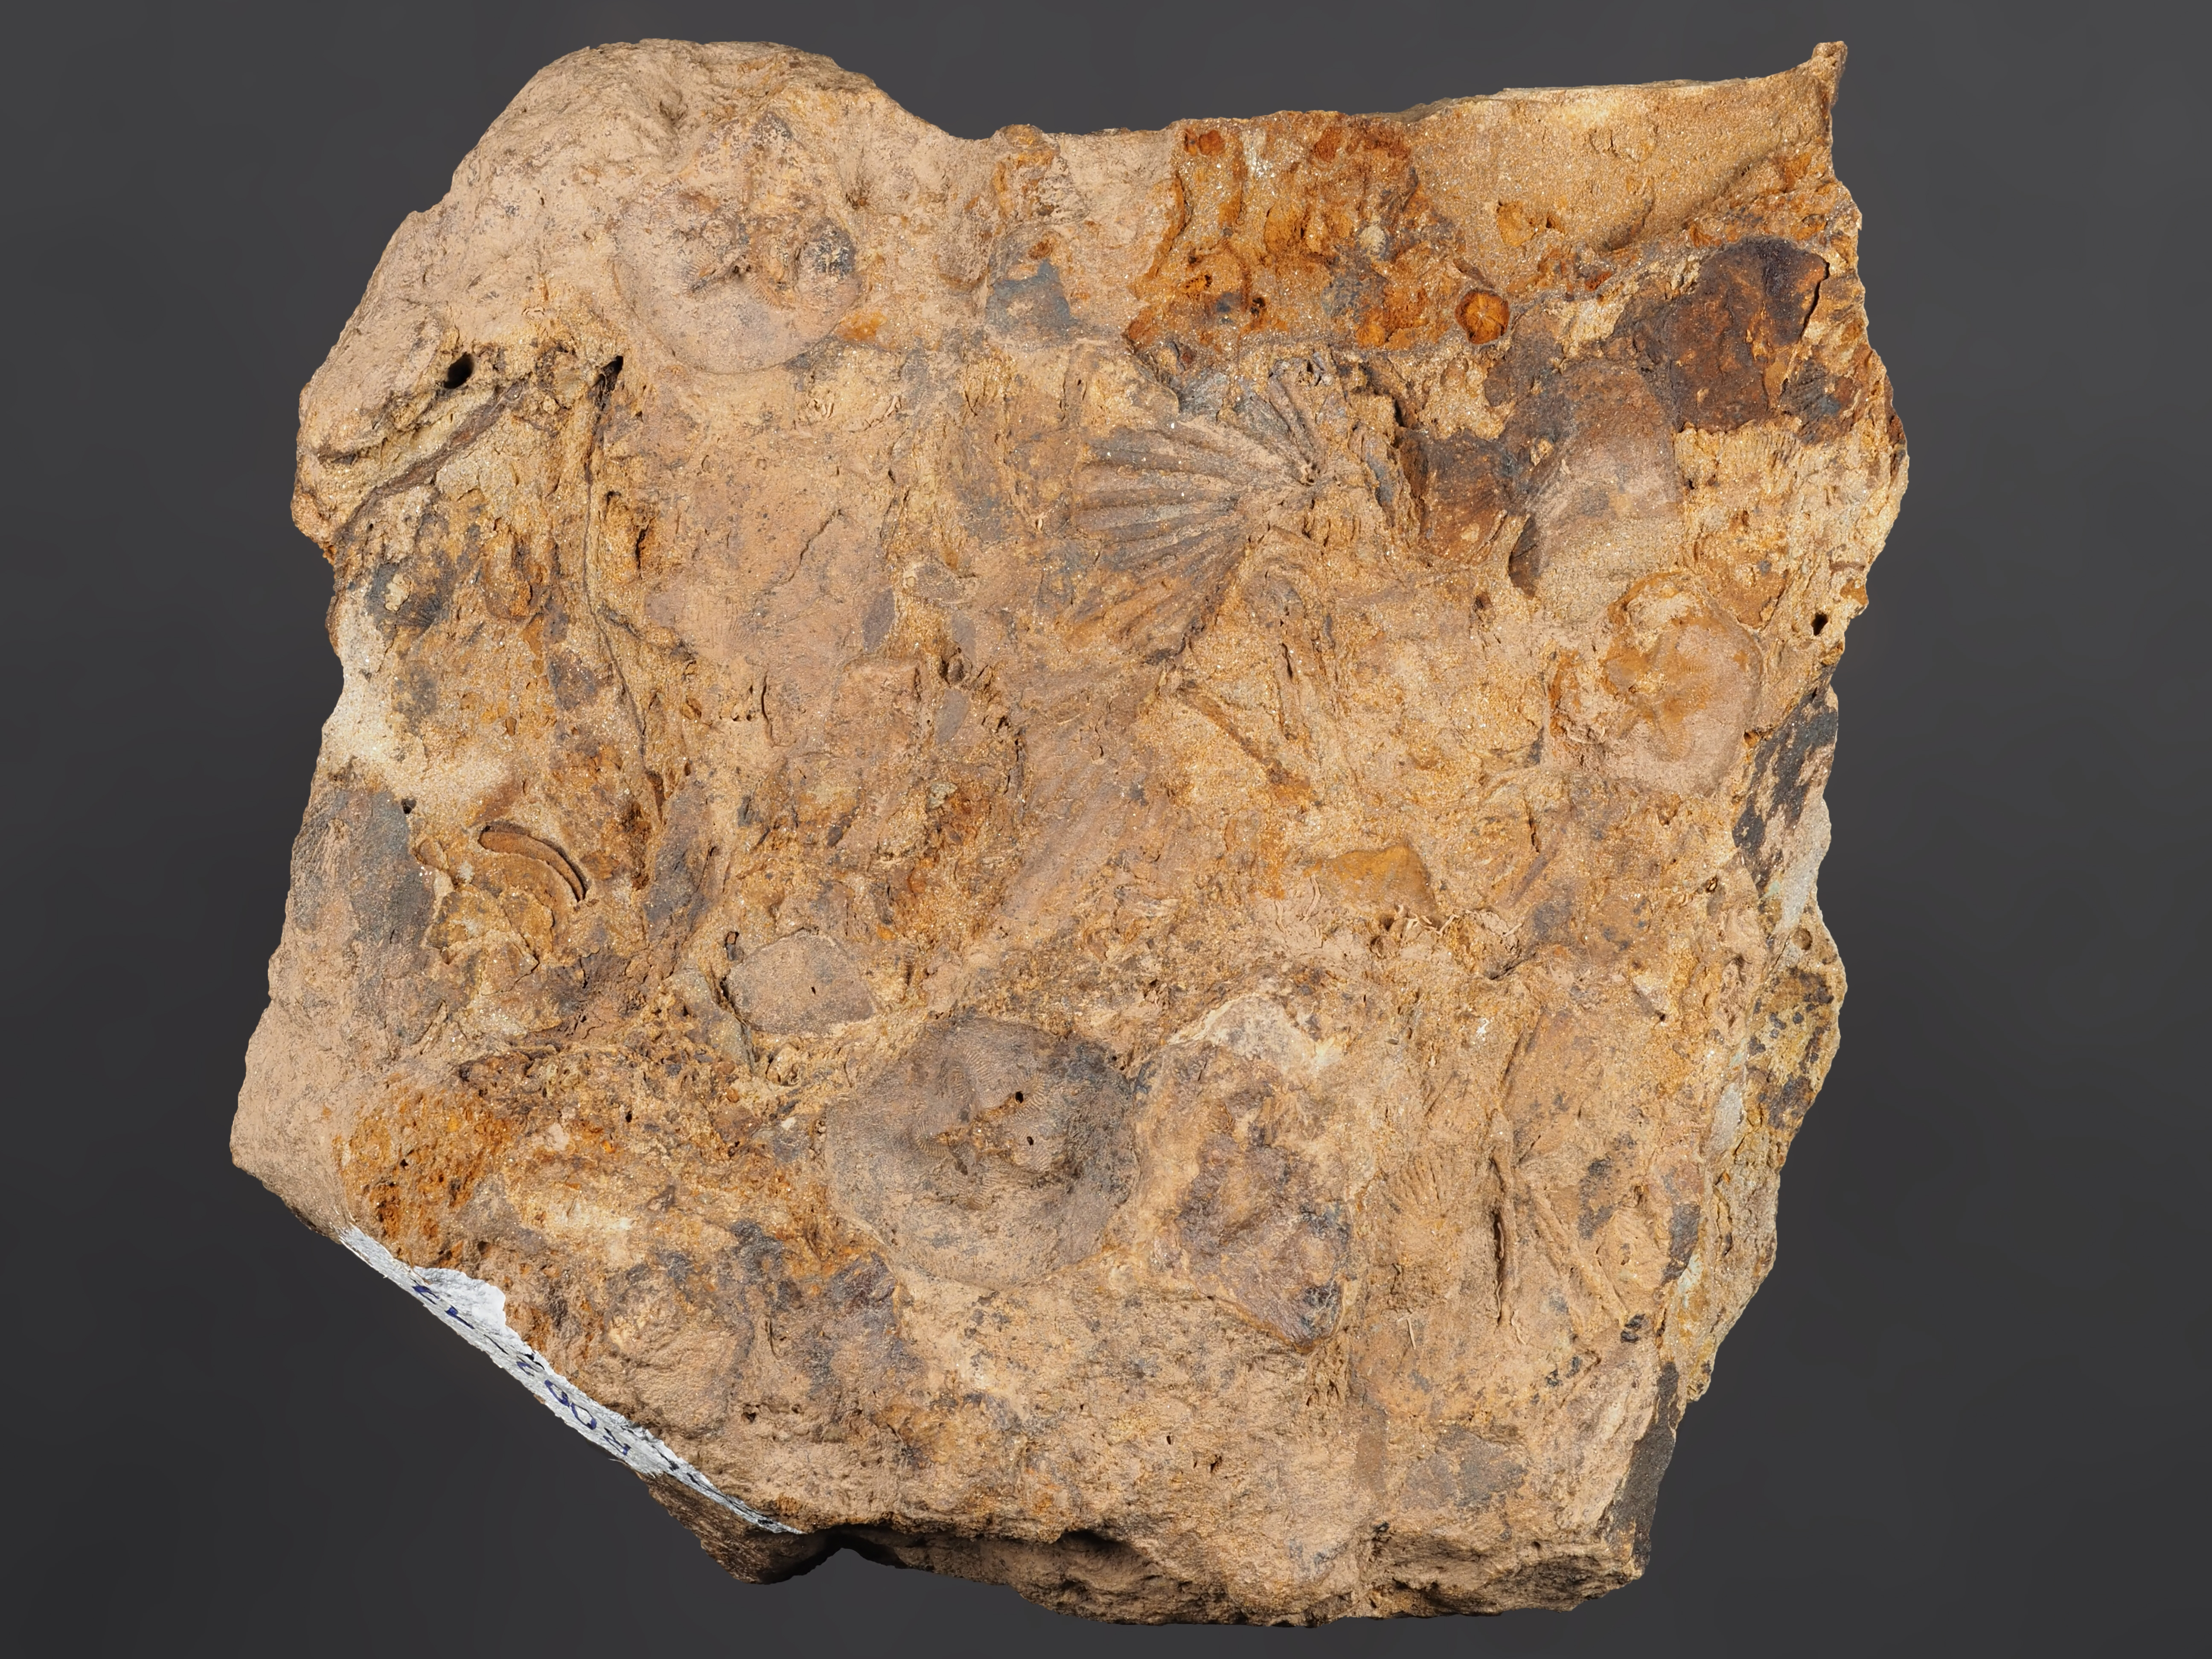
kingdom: Animalia
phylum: Mollusca
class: Bivalvia
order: Nuculanida
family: Cucullellidae
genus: Nuculites
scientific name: Nuculites
